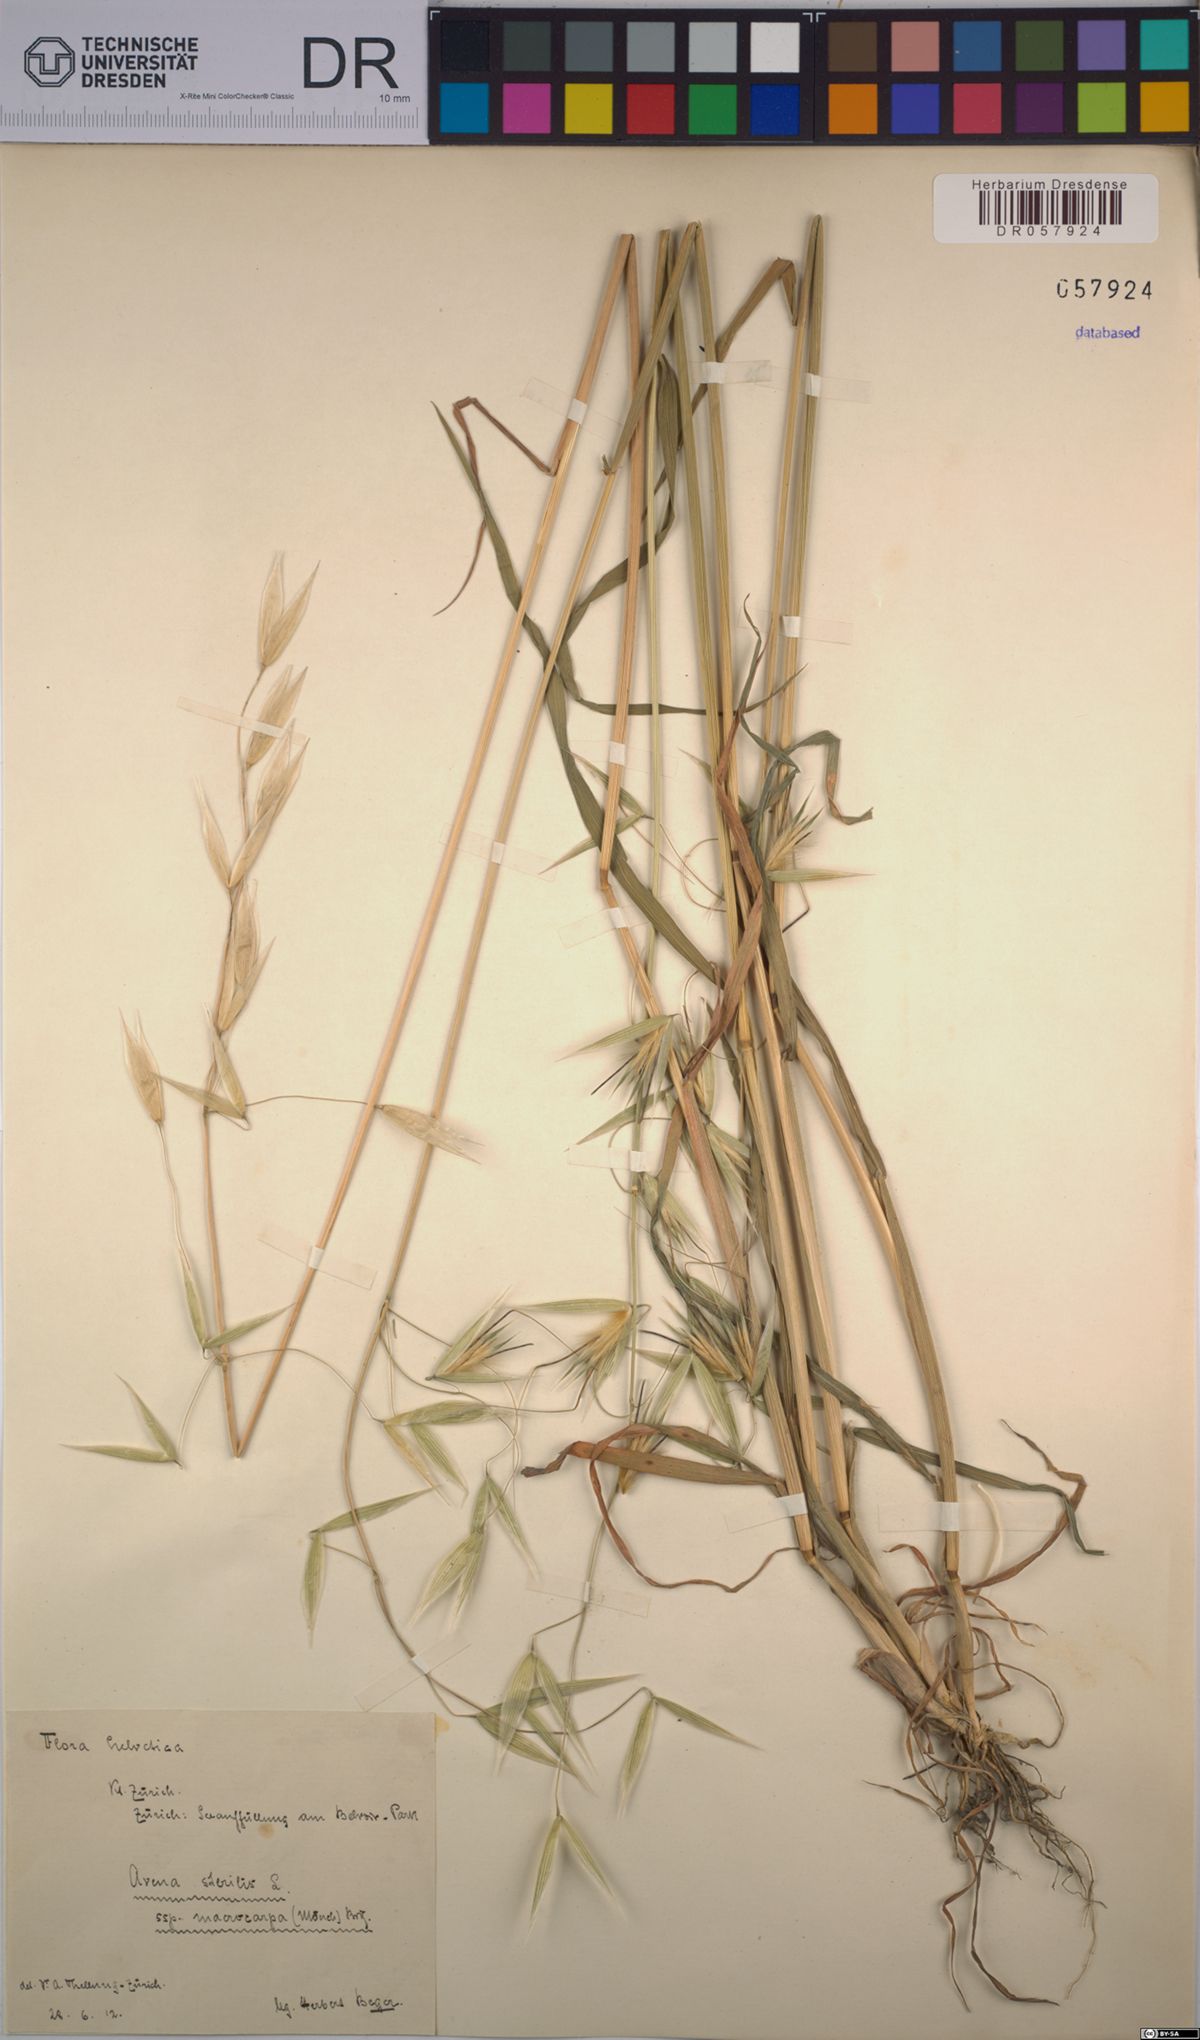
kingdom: Plantae
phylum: Tracheophyta
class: Liliopsida
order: Poales
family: Poaceae
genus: Avena
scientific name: Avena sterilis
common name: Animated oat
